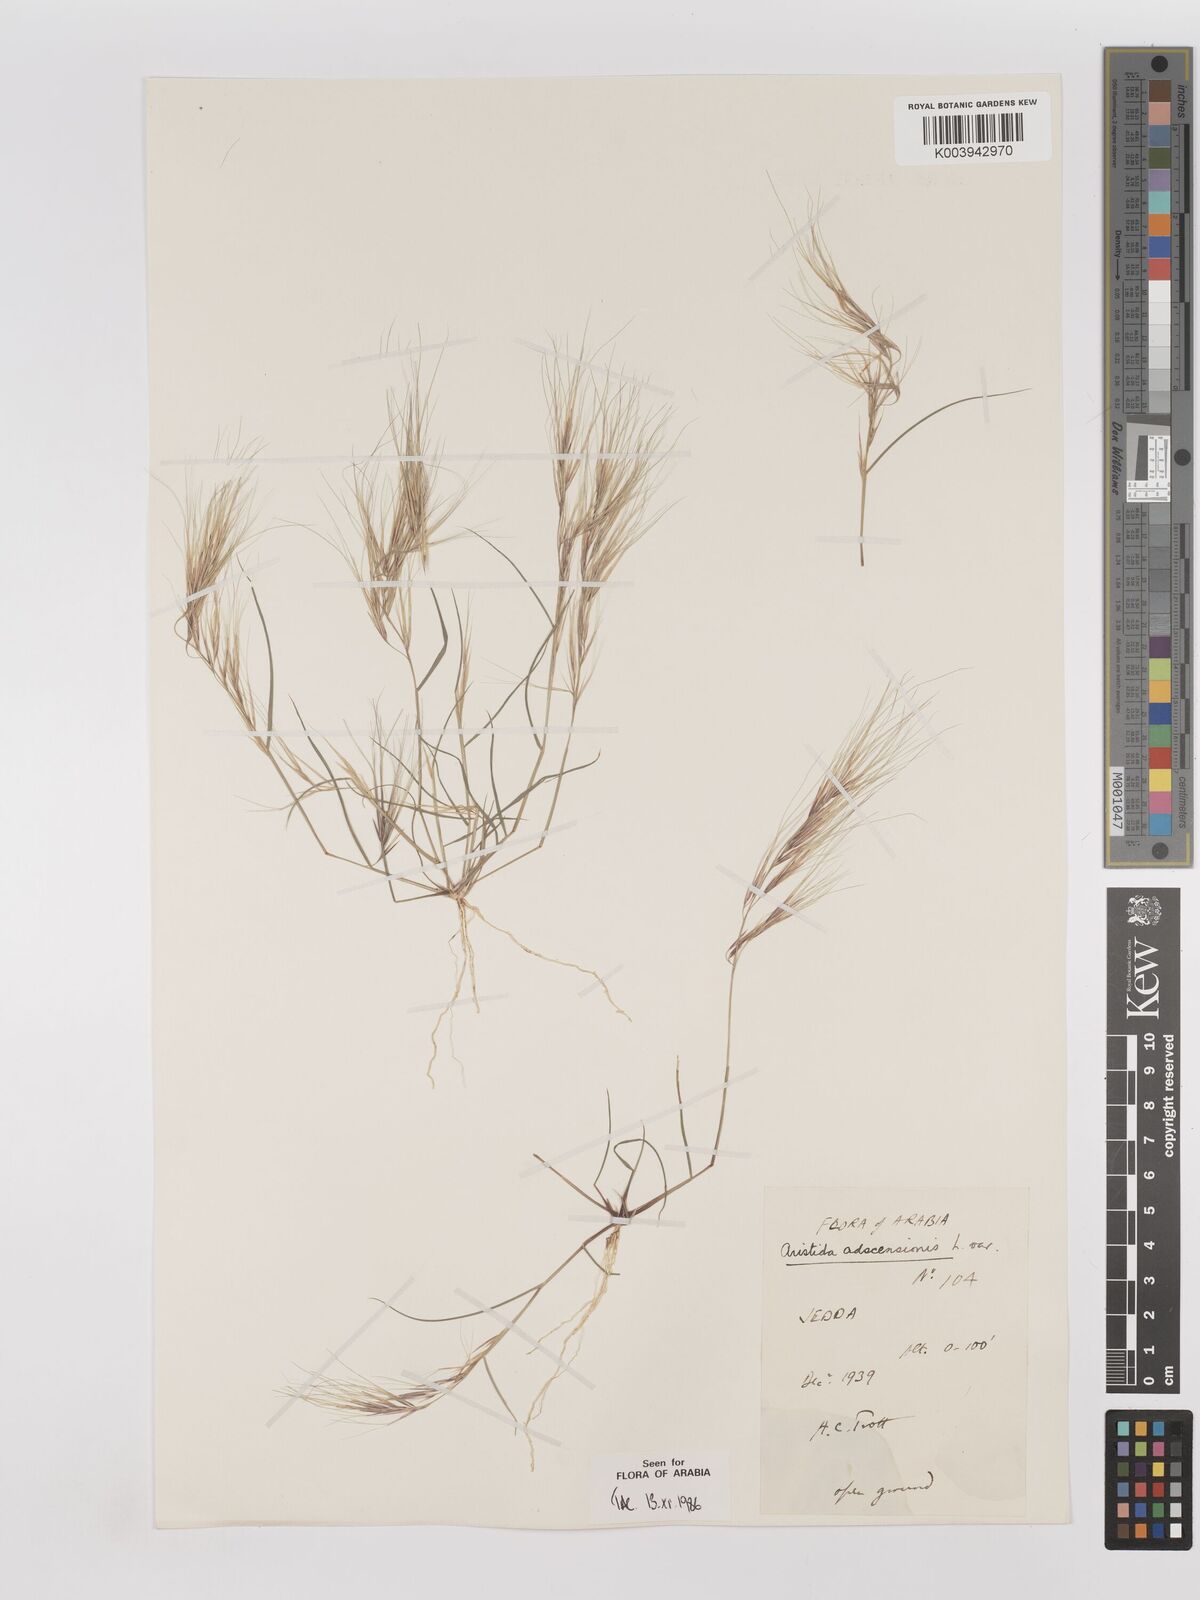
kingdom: Plantae
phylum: Tracheophyta
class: Liliopsida
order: Poales
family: Poaceae
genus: Aristida
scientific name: Aristida adscensionis
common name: Sixweeks threeawn
